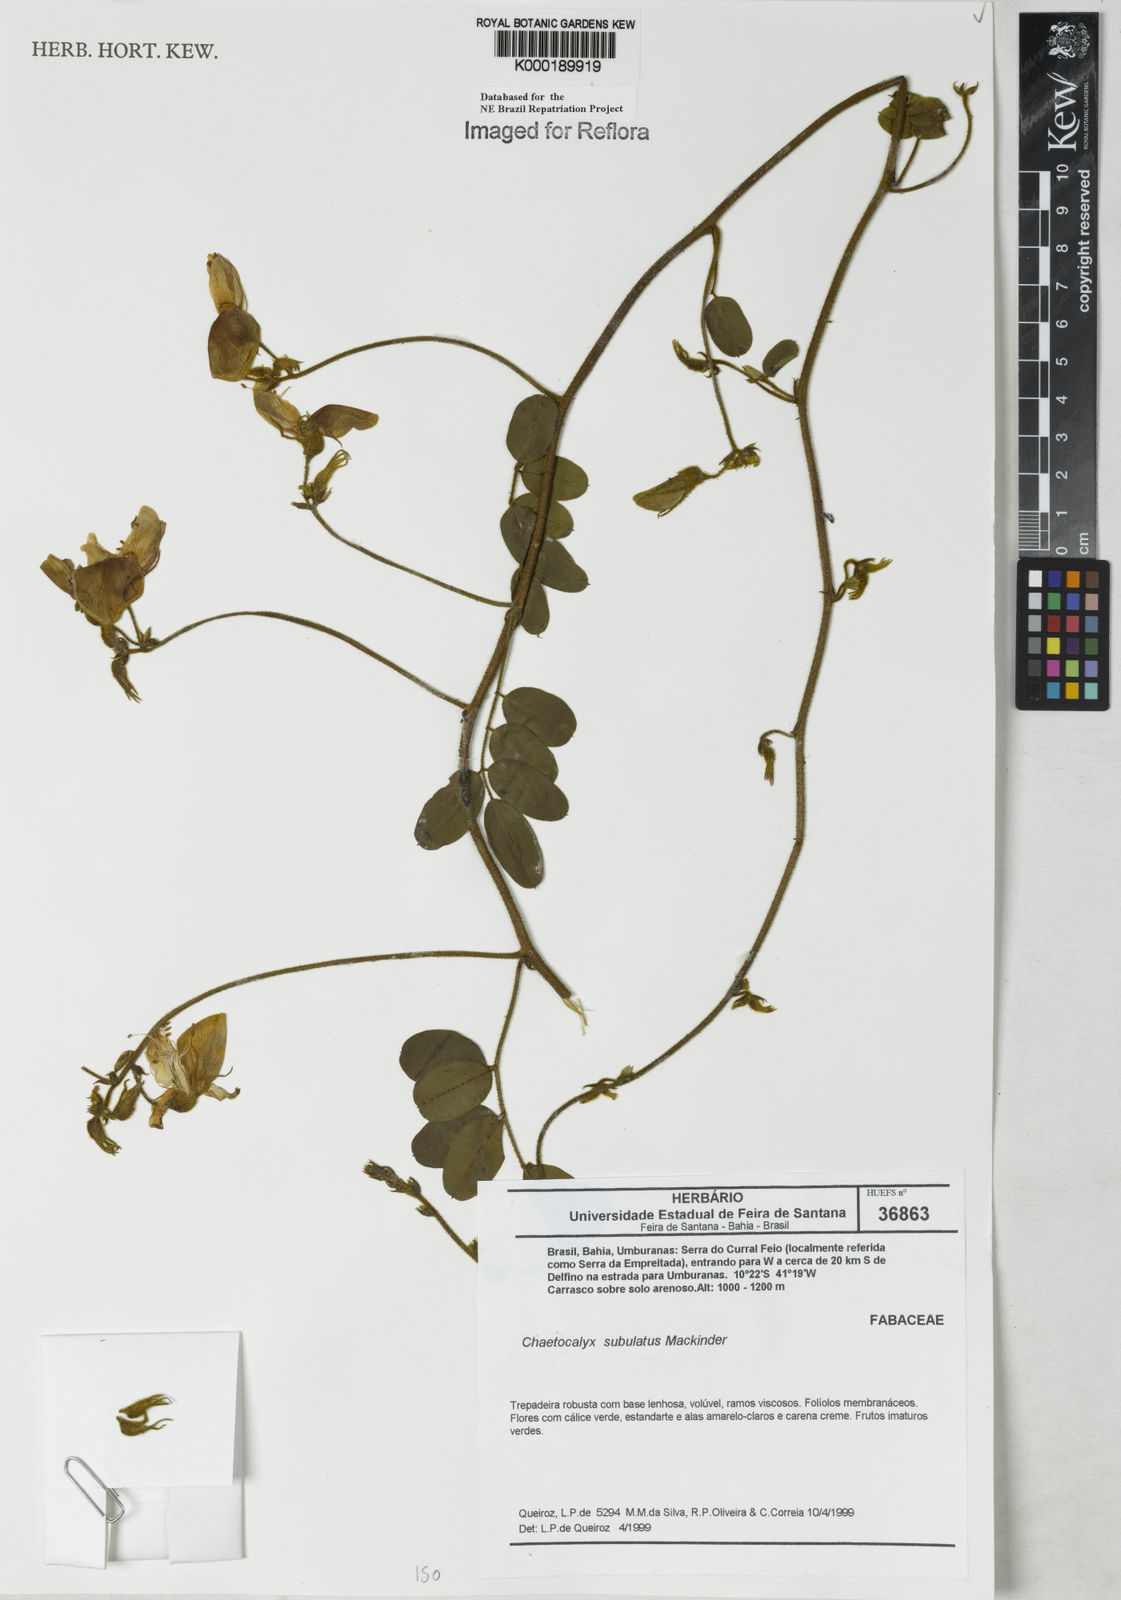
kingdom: Plantae
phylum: Tracheophyta
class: Magnoliopsida
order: Fabales
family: Fabaceae
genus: Nissolia
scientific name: Nissolia subulata
